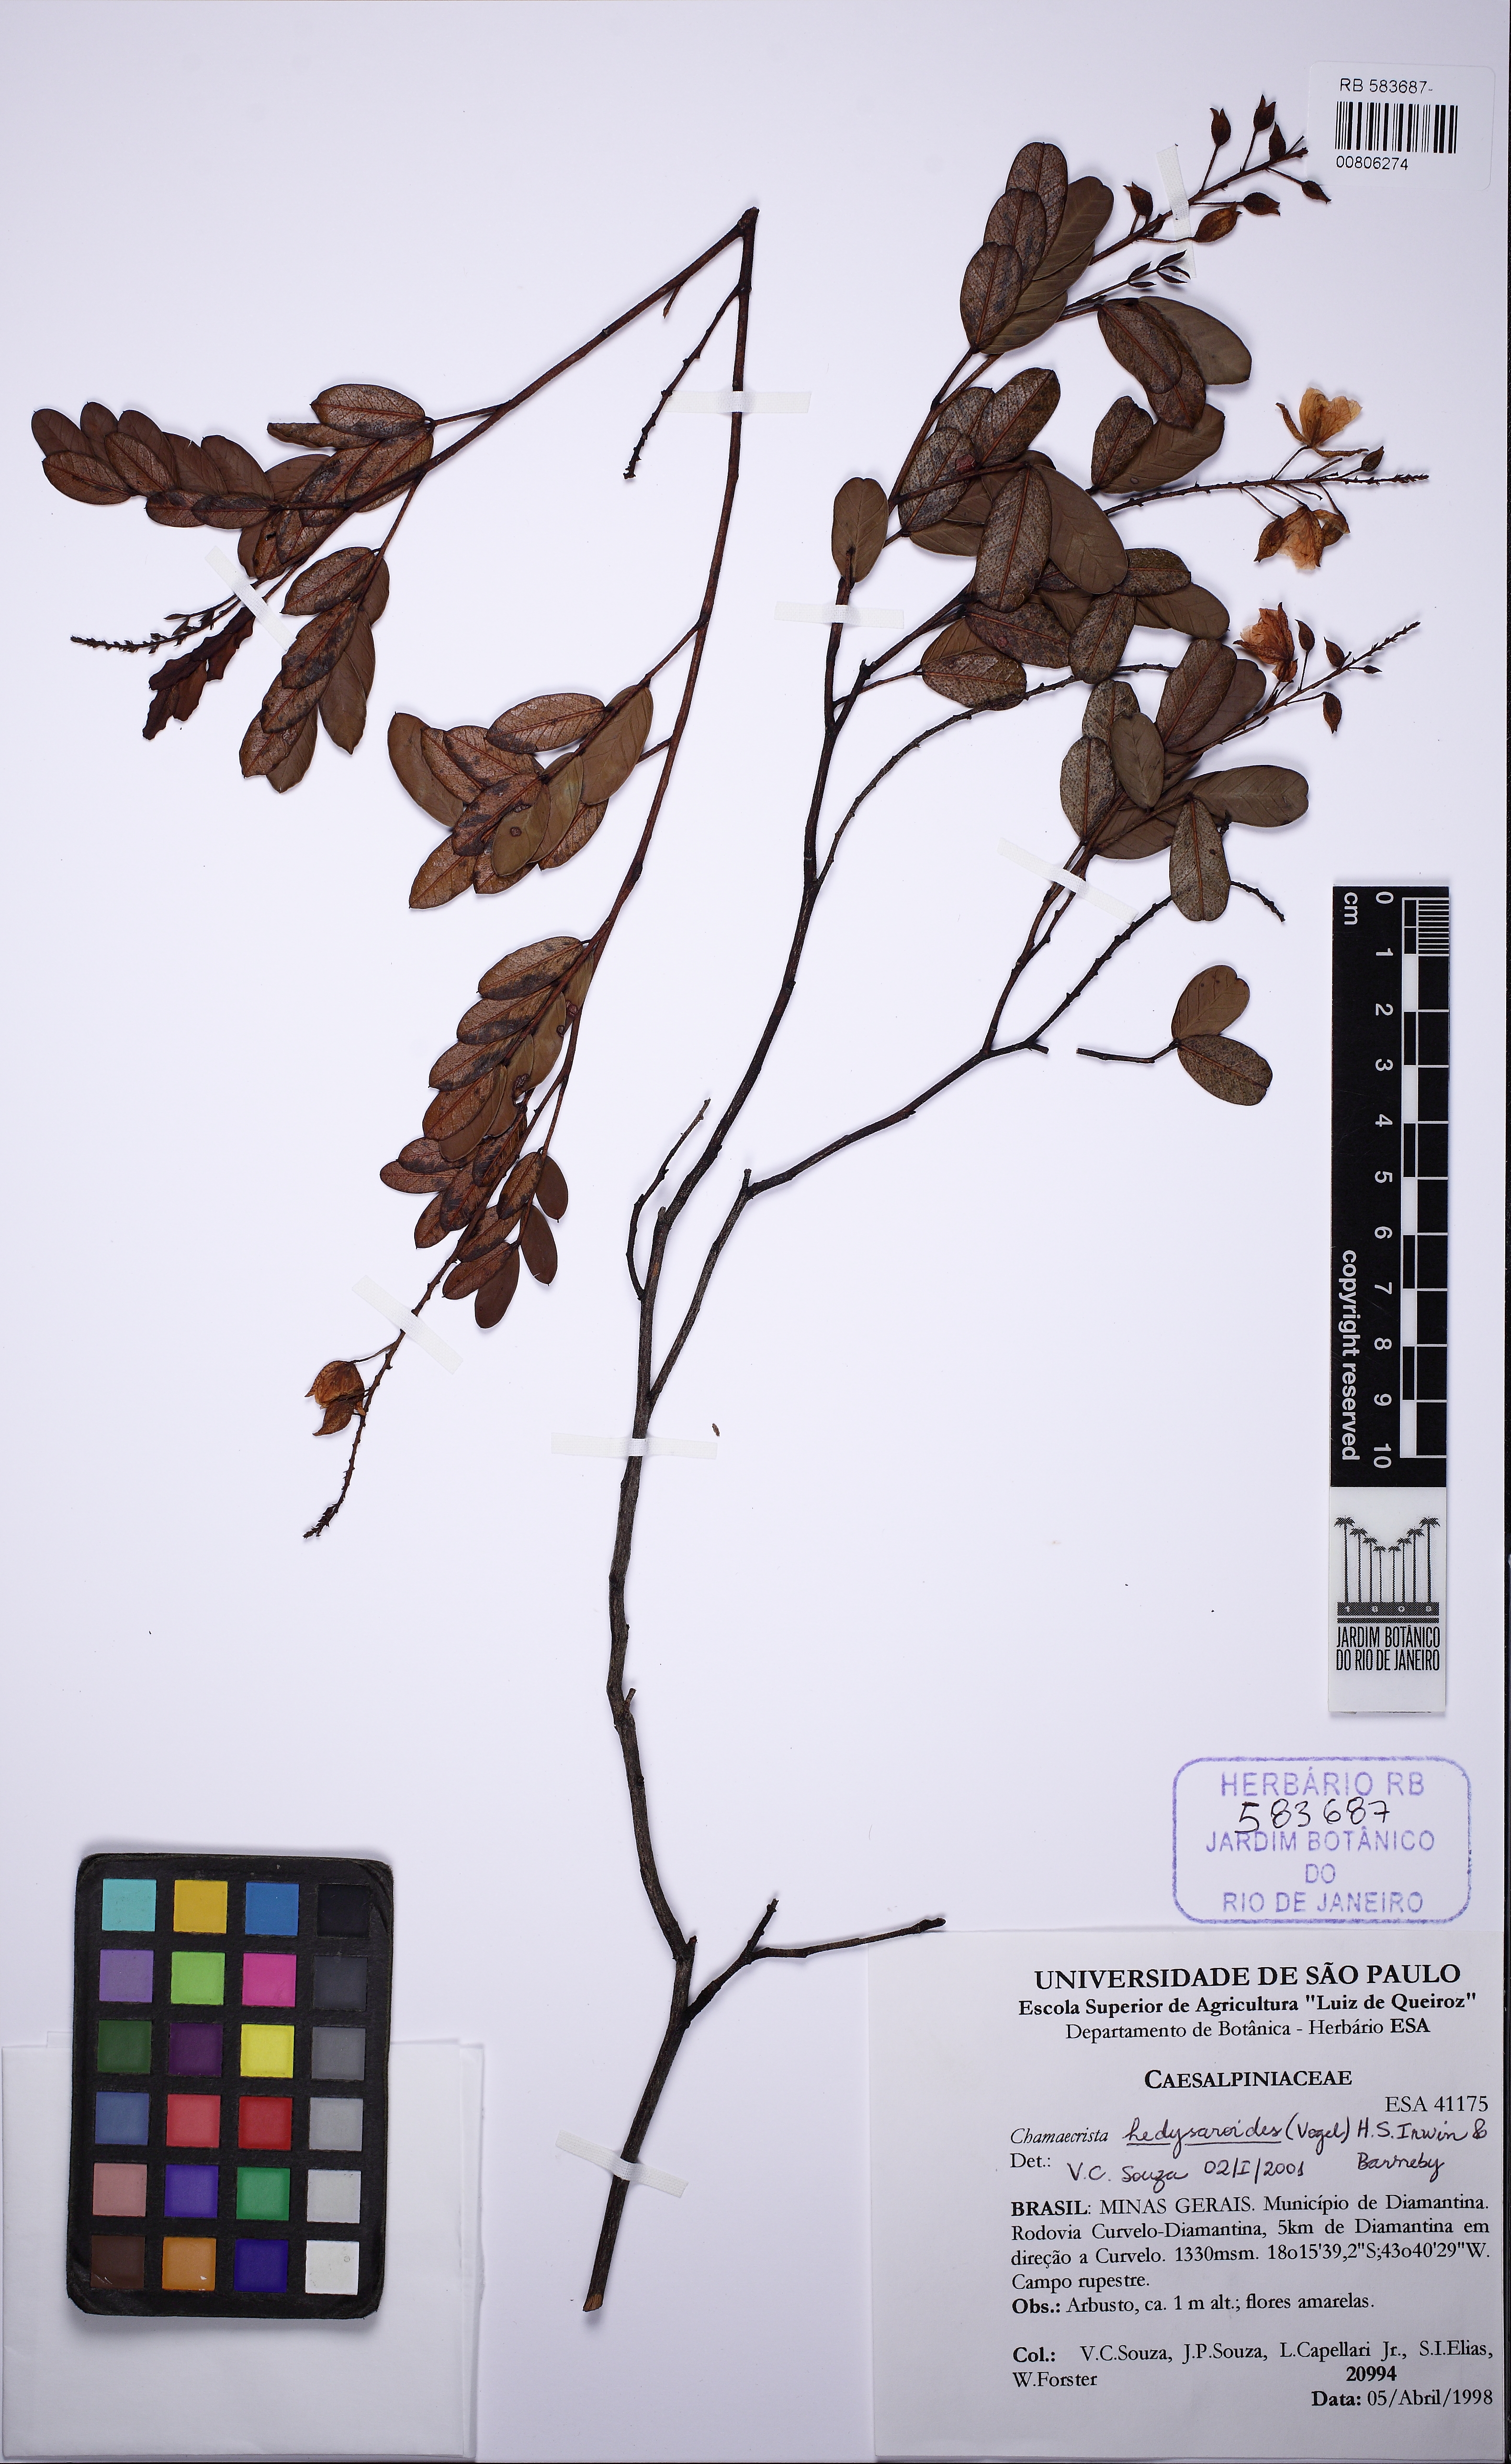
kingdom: Plantae
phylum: Tracheophyta
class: Magnoliopsida
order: Fabales
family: Fabaceae
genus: Chamaecrista
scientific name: Chamaecrista hedysaroides
